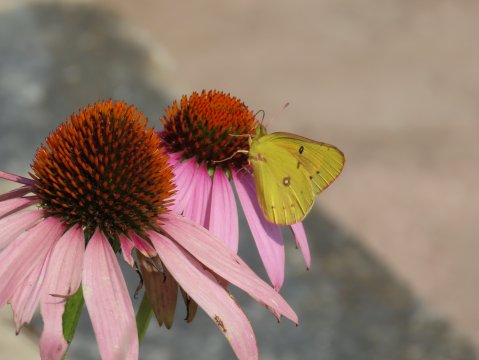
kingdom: Animalia
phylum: Arthropoda
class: Insecta
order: Lepidoptera
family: Pieridae
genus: Colias
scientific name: Colias eurytheme
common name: Orange Sulphur
